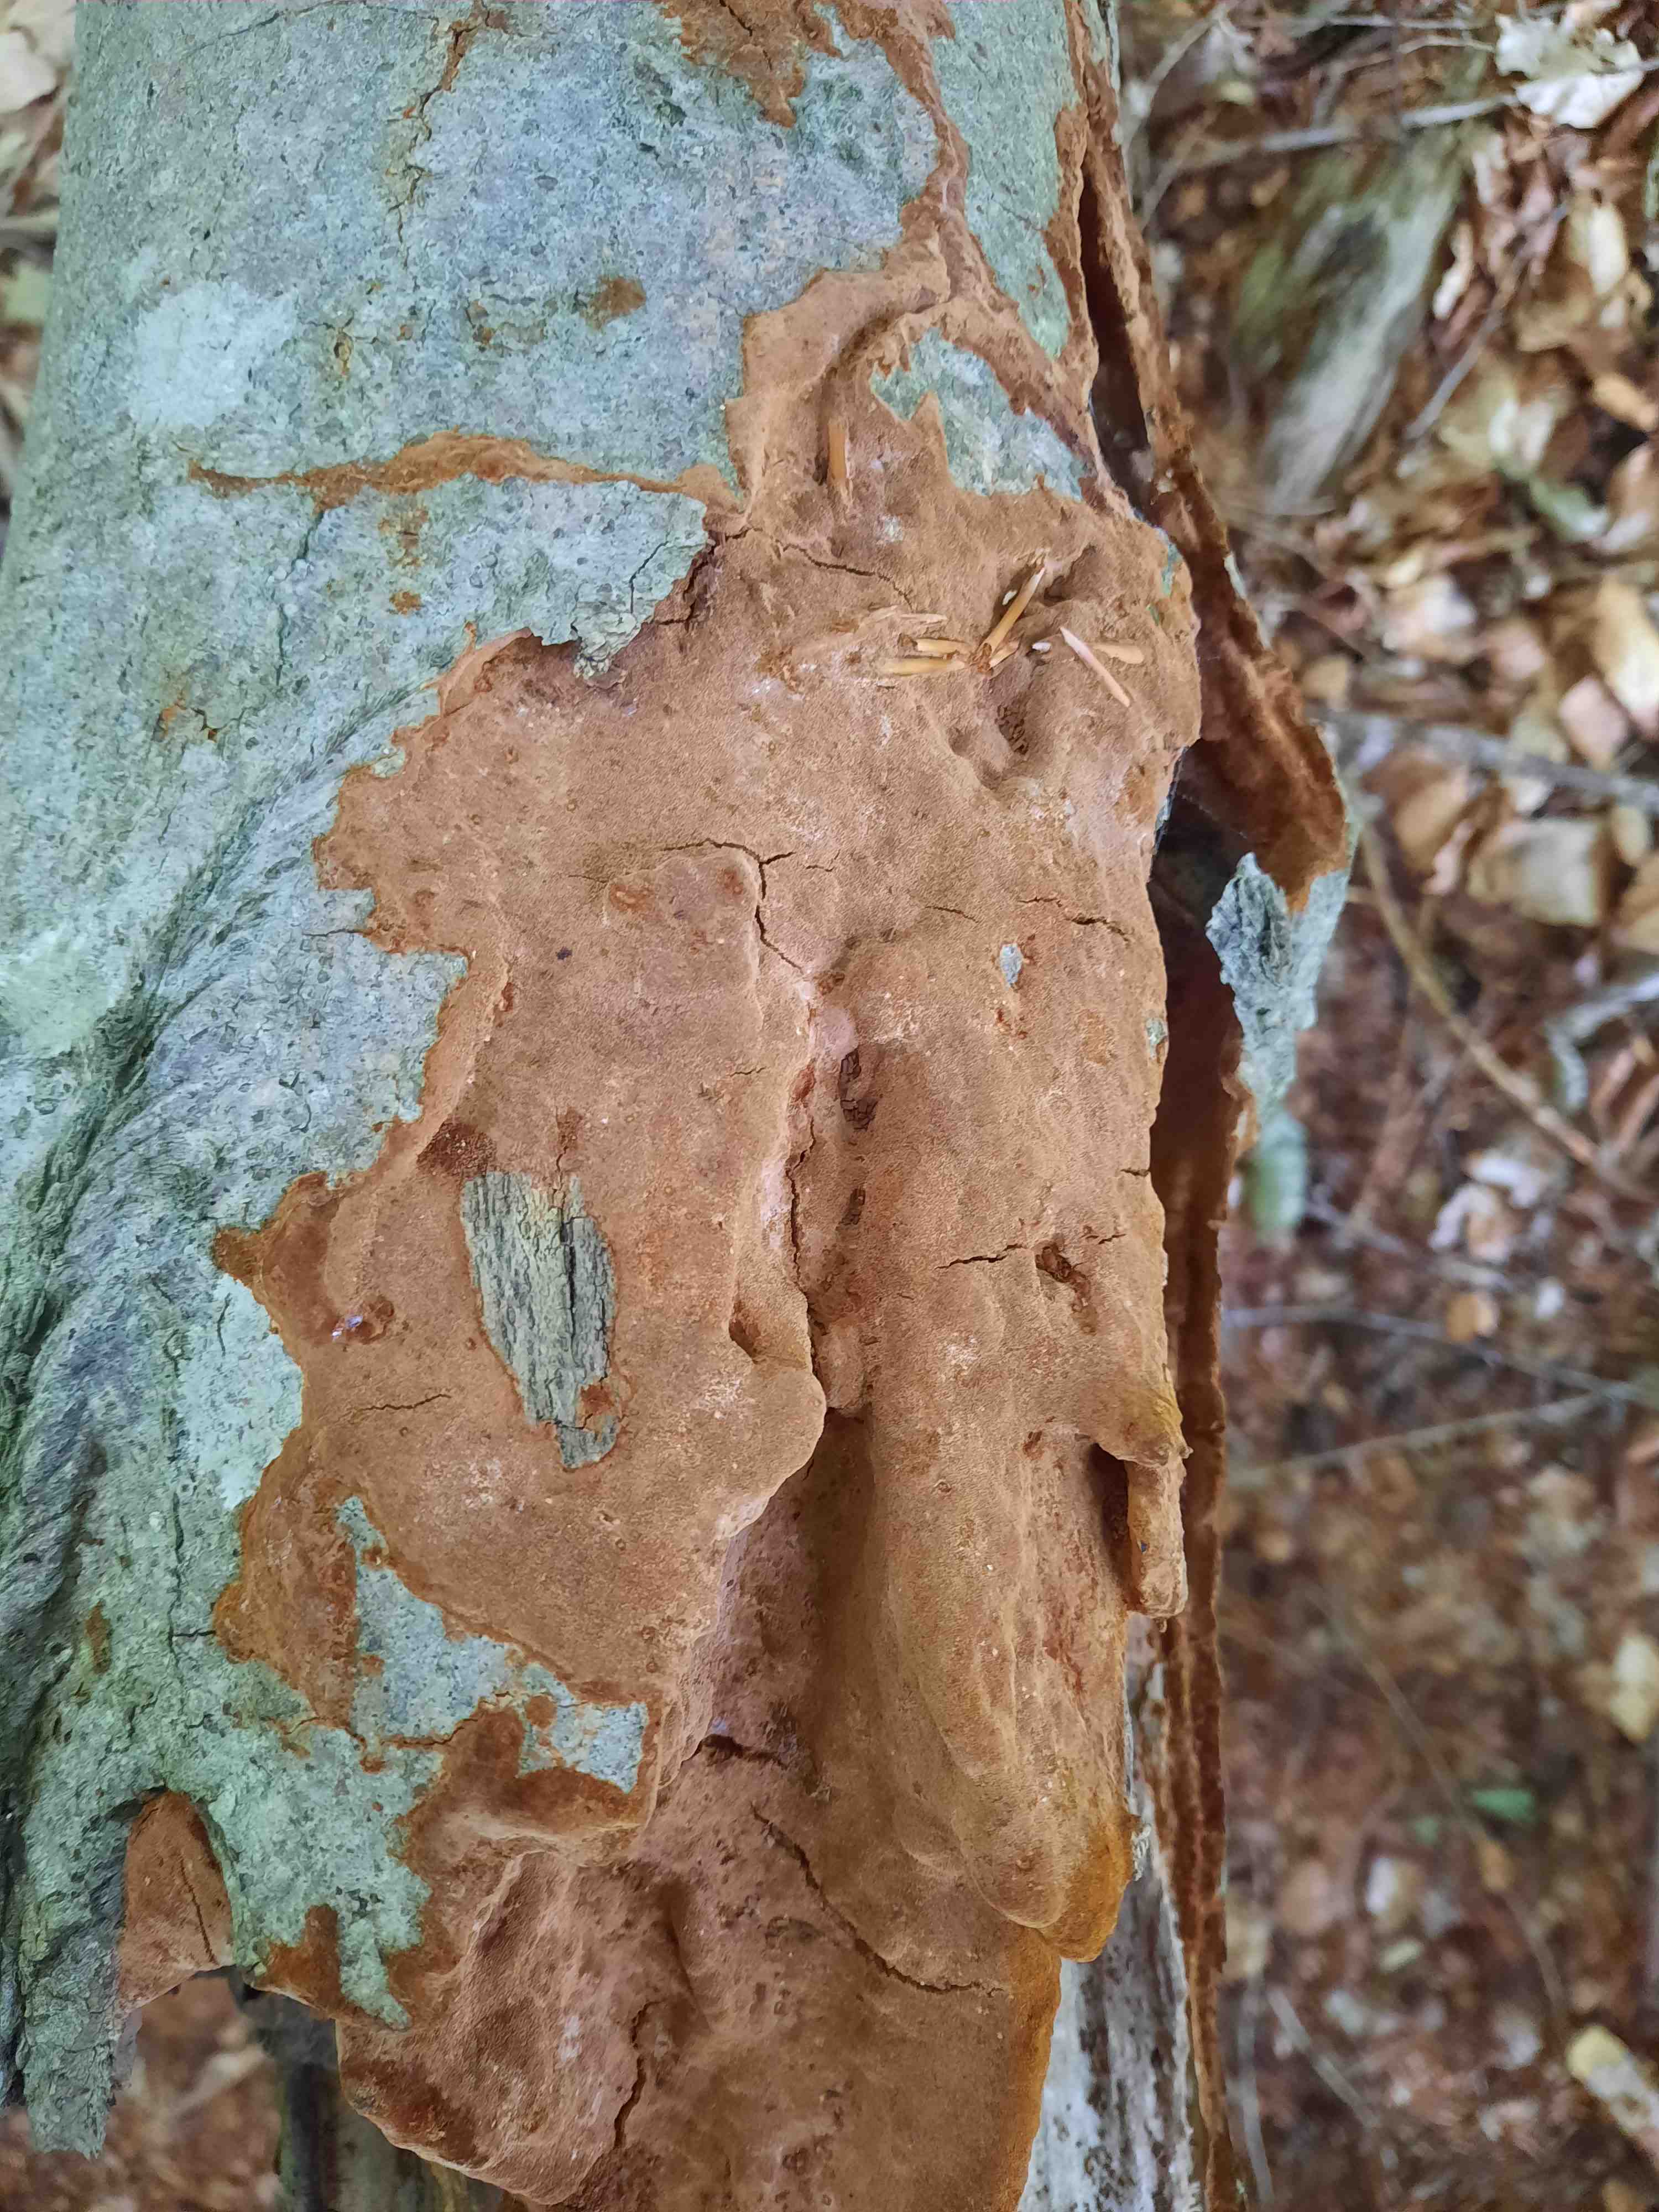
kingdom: Fungi
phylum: Basidiomycota
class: Agaricomycetes
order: Hymenochaetales
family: Hymenochaetaceae
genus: Fuscoporia
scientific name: Fuscoporia ferrea
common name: skorpe-ildporesvamp
